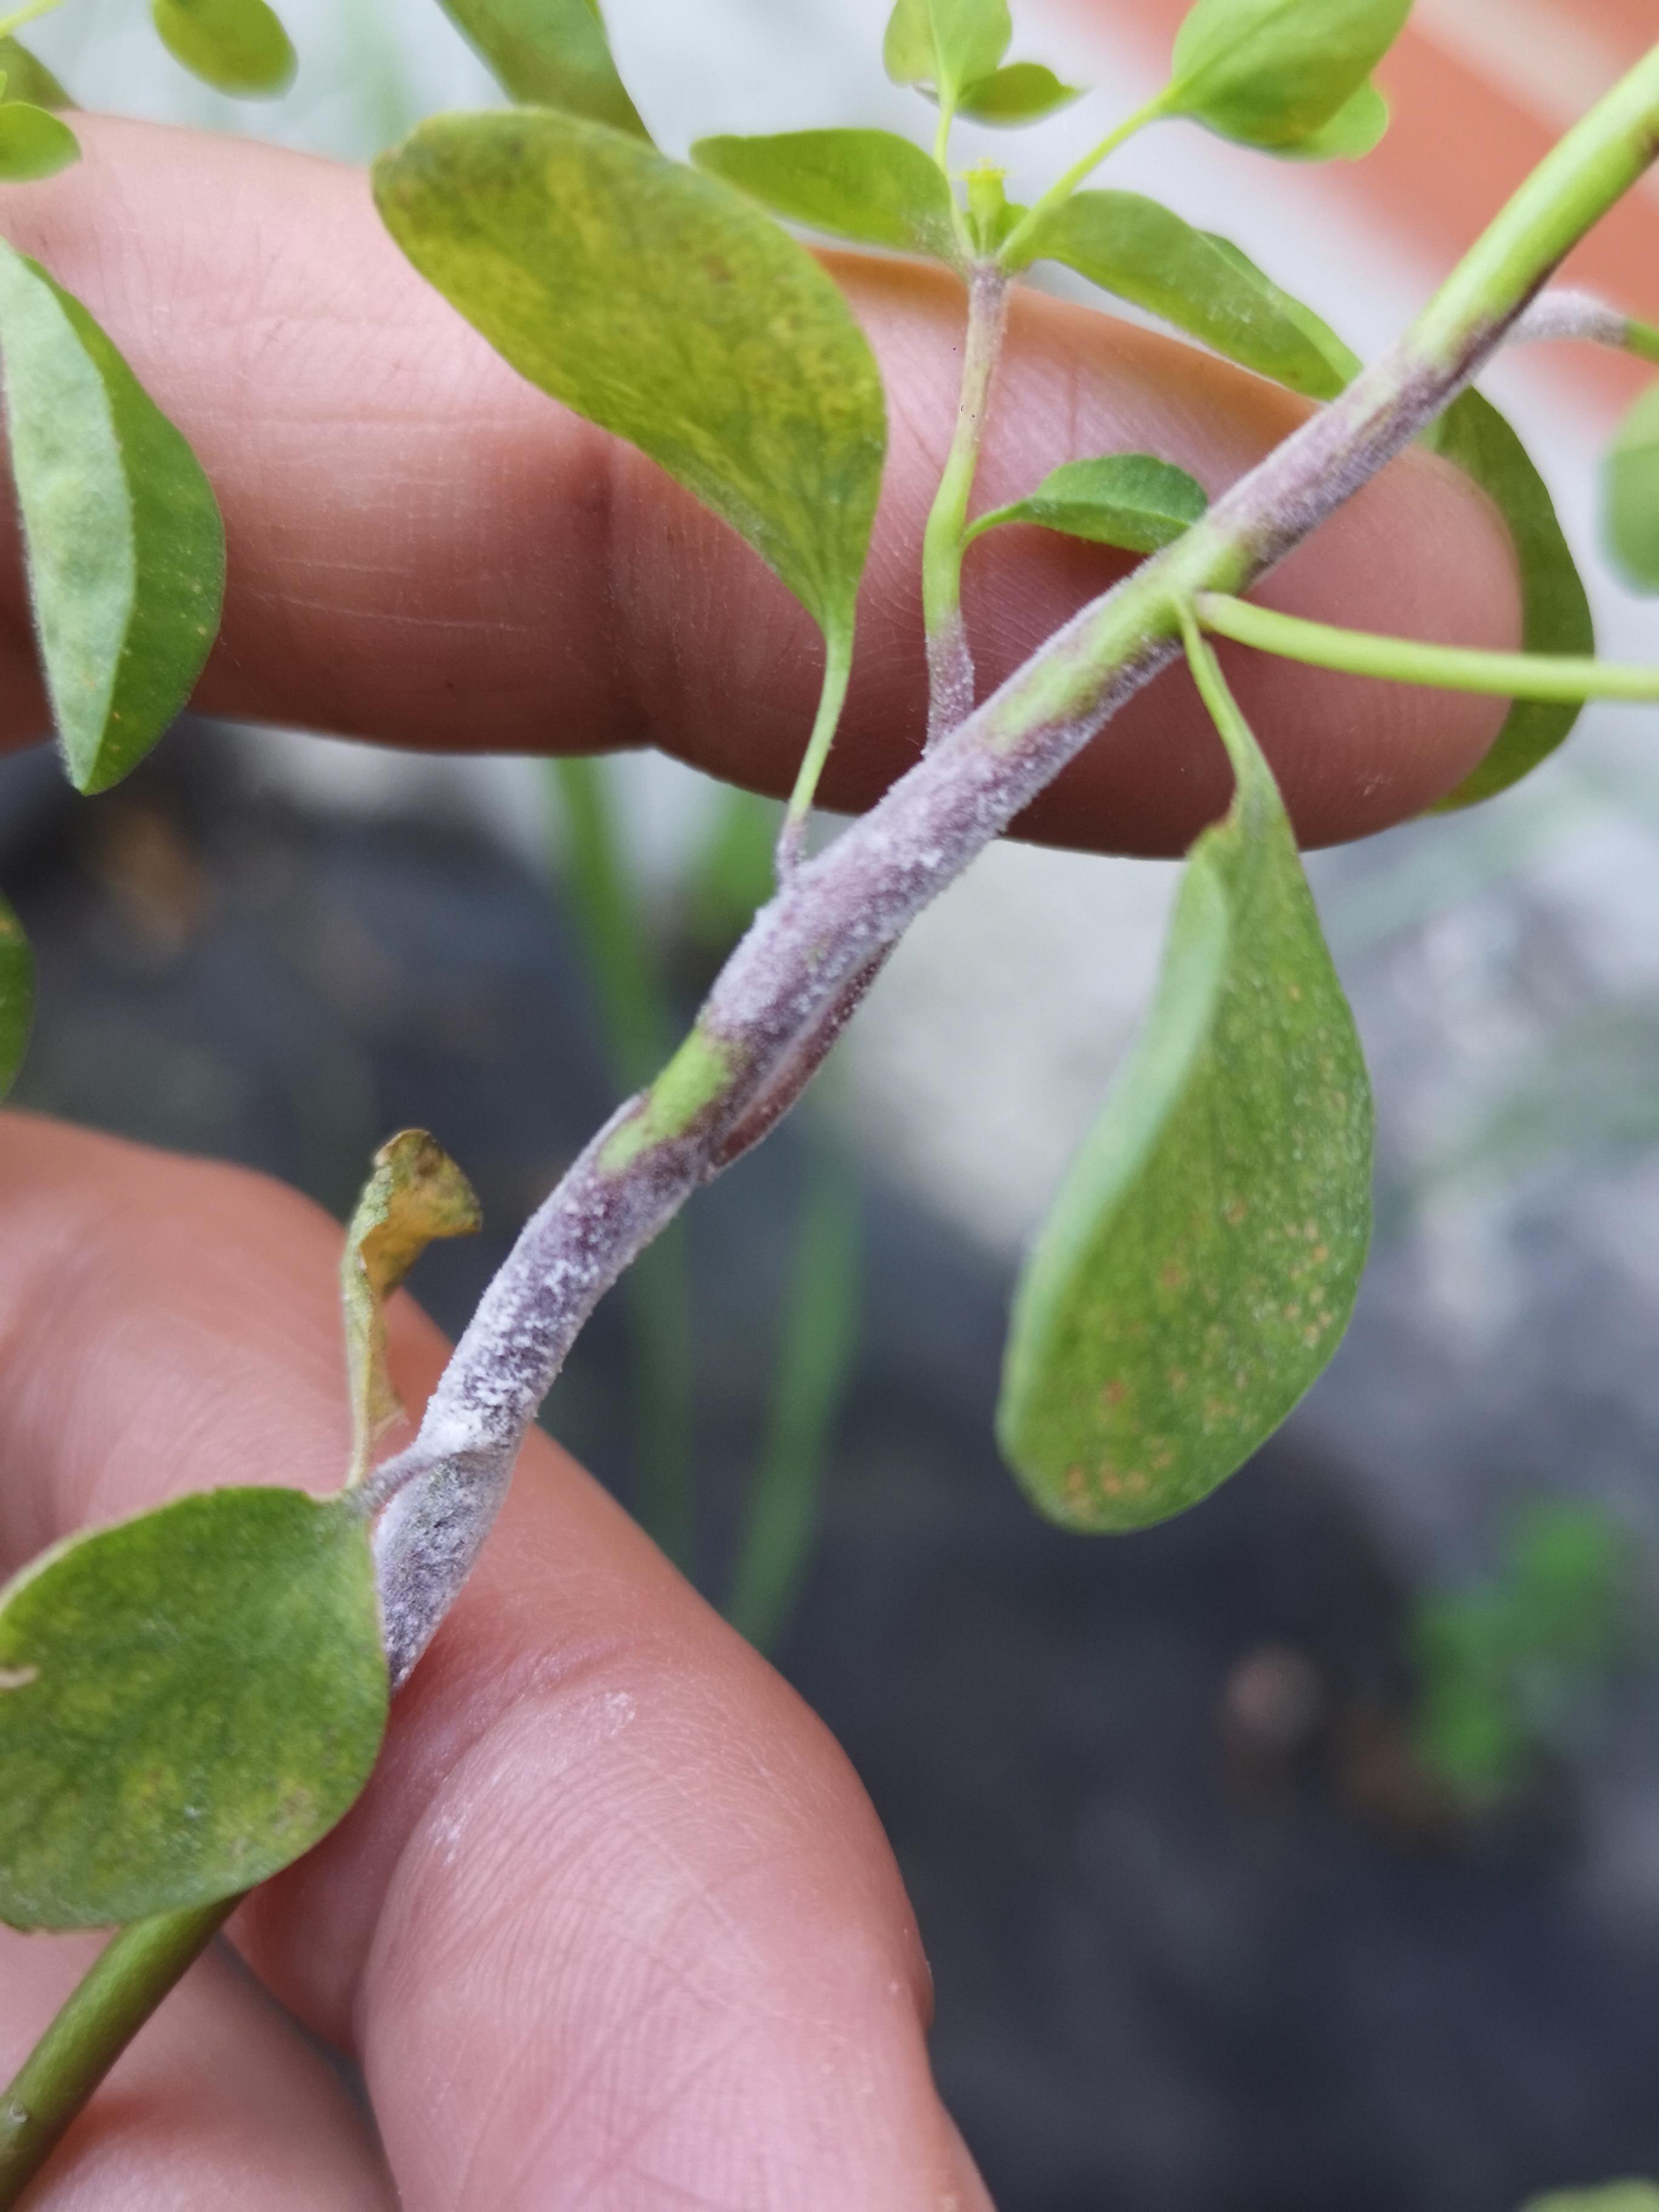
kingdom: Fungi
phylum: Ascomycota
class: Leotiomycetes
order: Helotiales
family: Erysiphaceae
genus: Podosphaera
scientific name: Podosphaera euphorbiae
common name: Eurasian poinsettia powdery mildew
